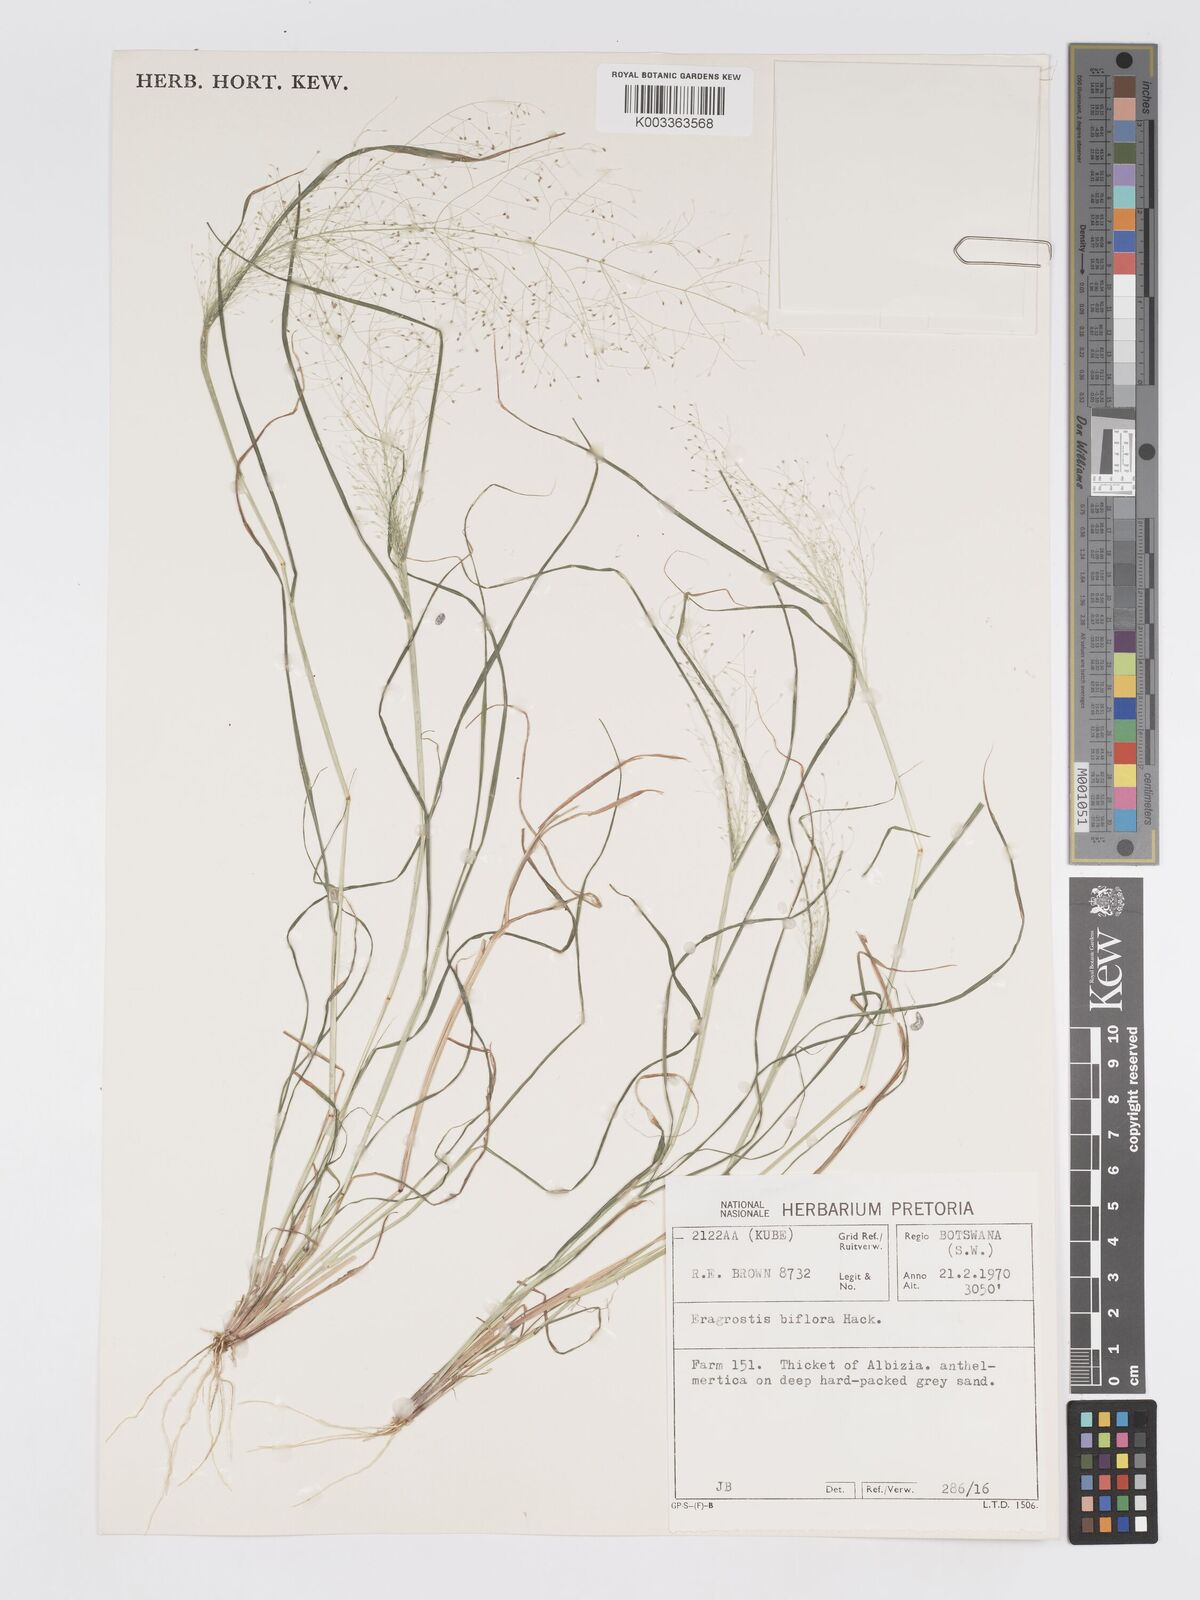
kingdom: Plantae
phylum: Tracheophyta
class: Liliopsida
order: Poales
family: Poaceae
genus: Eragrostis
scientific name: Eragrostis biflora
